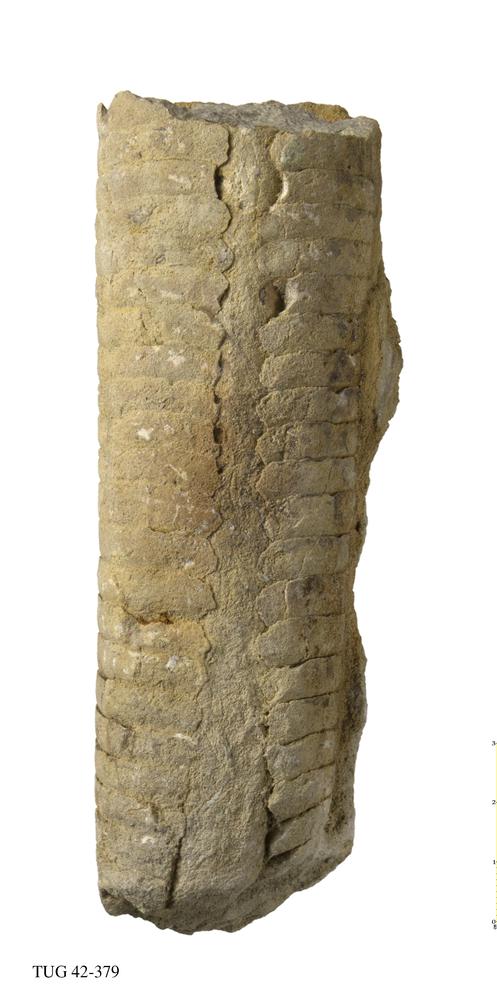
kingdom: Animalia
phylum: Mollusca
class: Cephalopoda
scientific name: Cephalopoda
